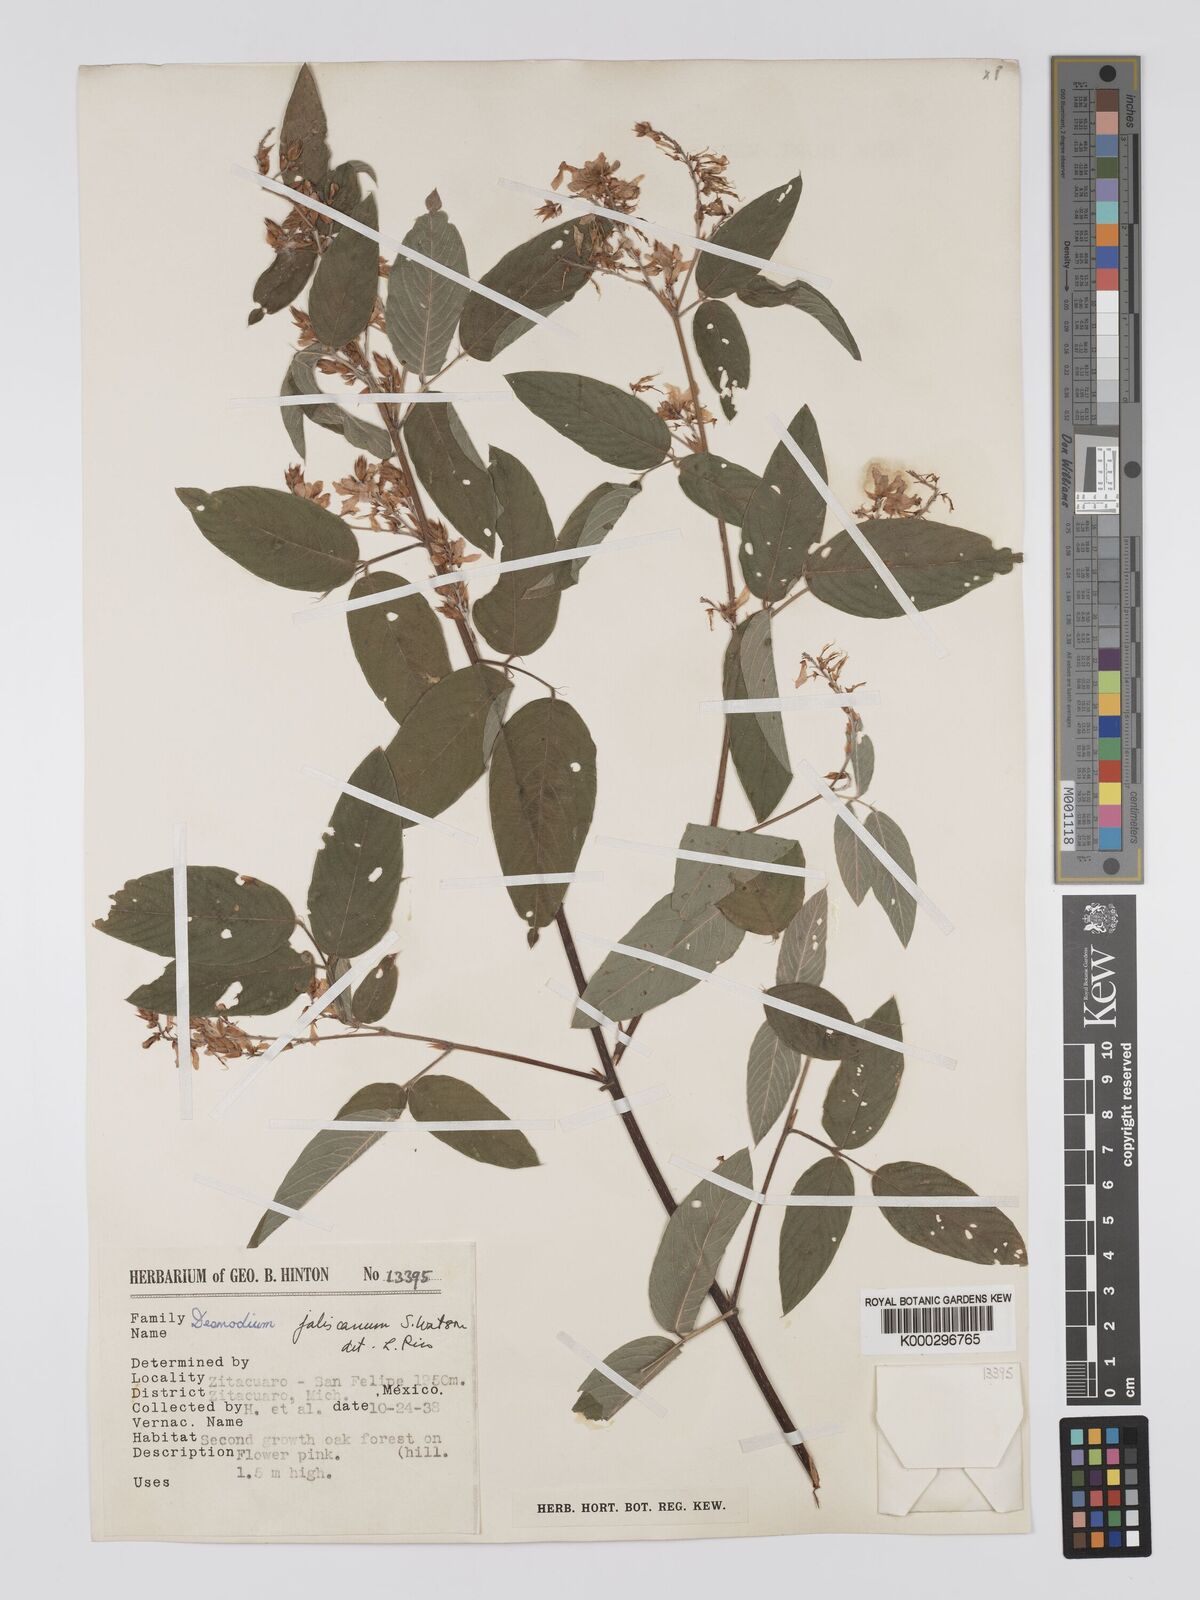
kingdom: Plantae
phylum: Tracheophyta
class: Magnoliopsida
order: Fabales
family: Fabaceae
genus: Desmodium
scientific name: Desmodium jaliscanum
